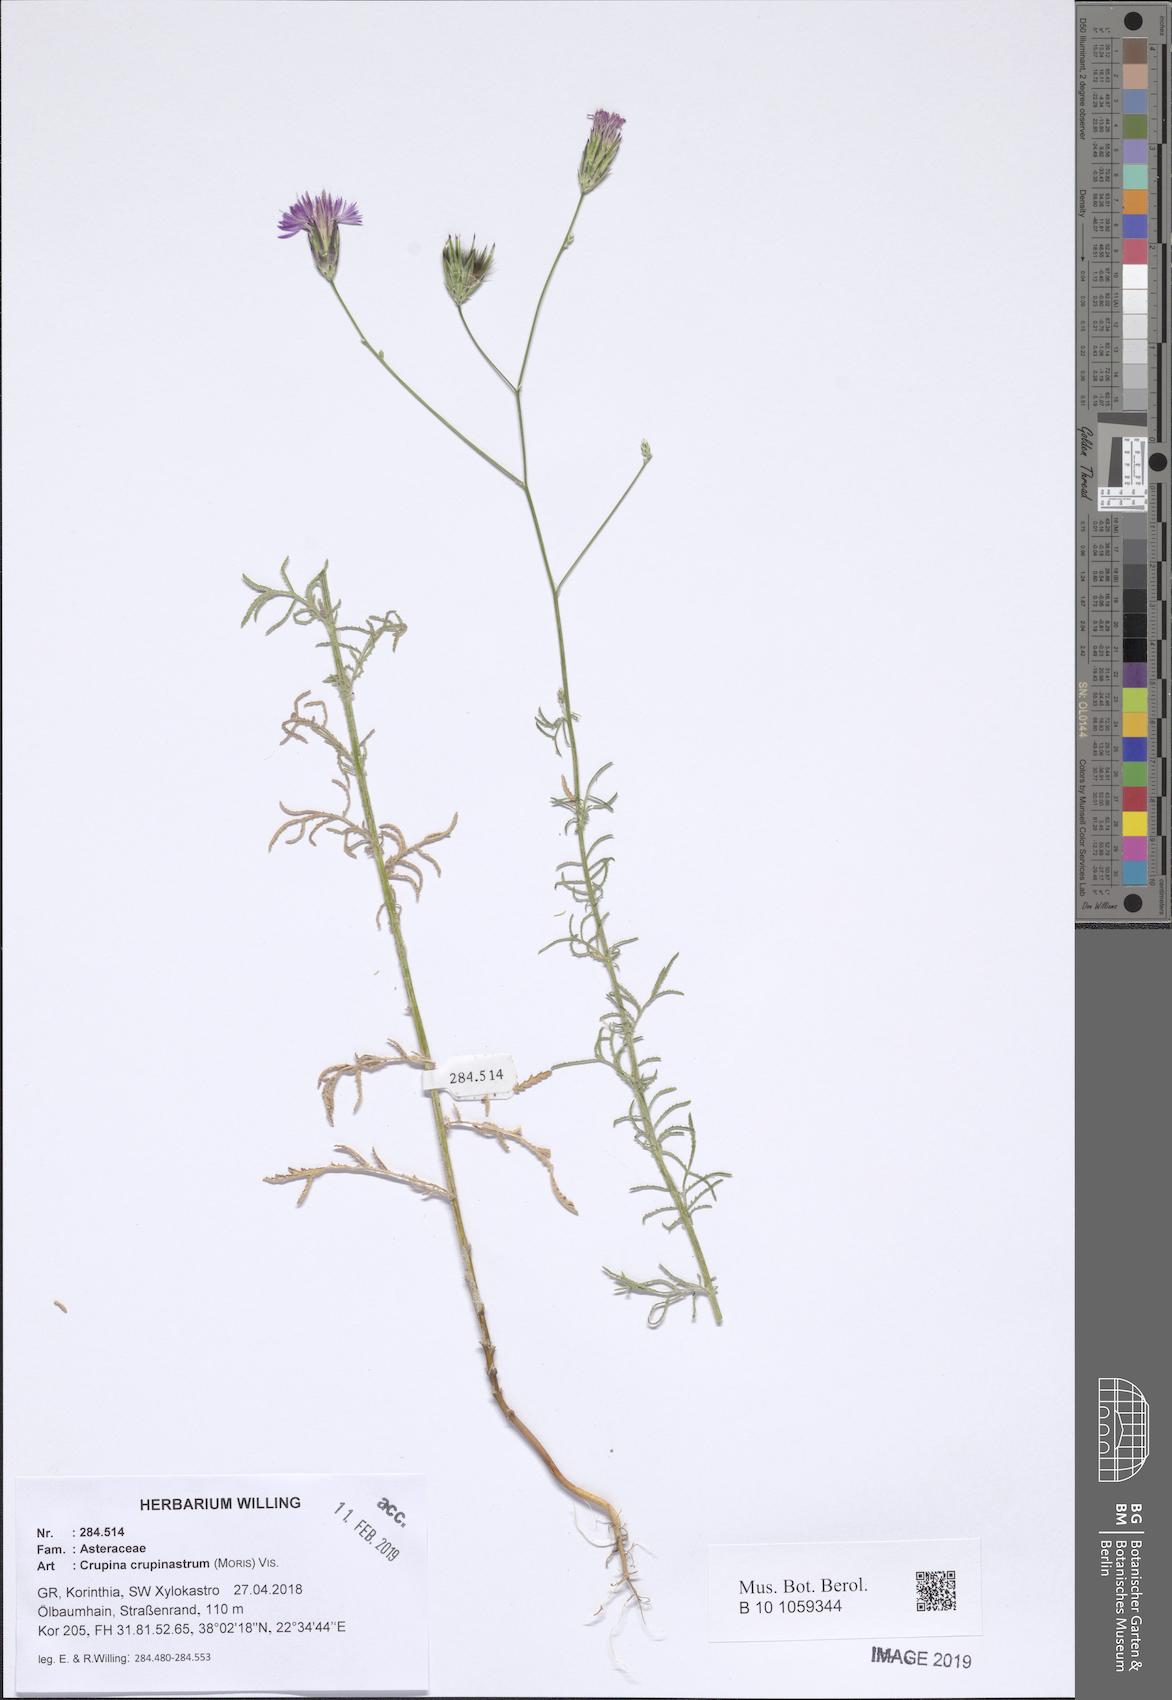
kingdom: Plantae
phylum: Tracheophyta
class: Magnoliopsida
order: Asterales
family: Asteraceae
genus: Crupina
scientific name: Crupina crupinastrum
